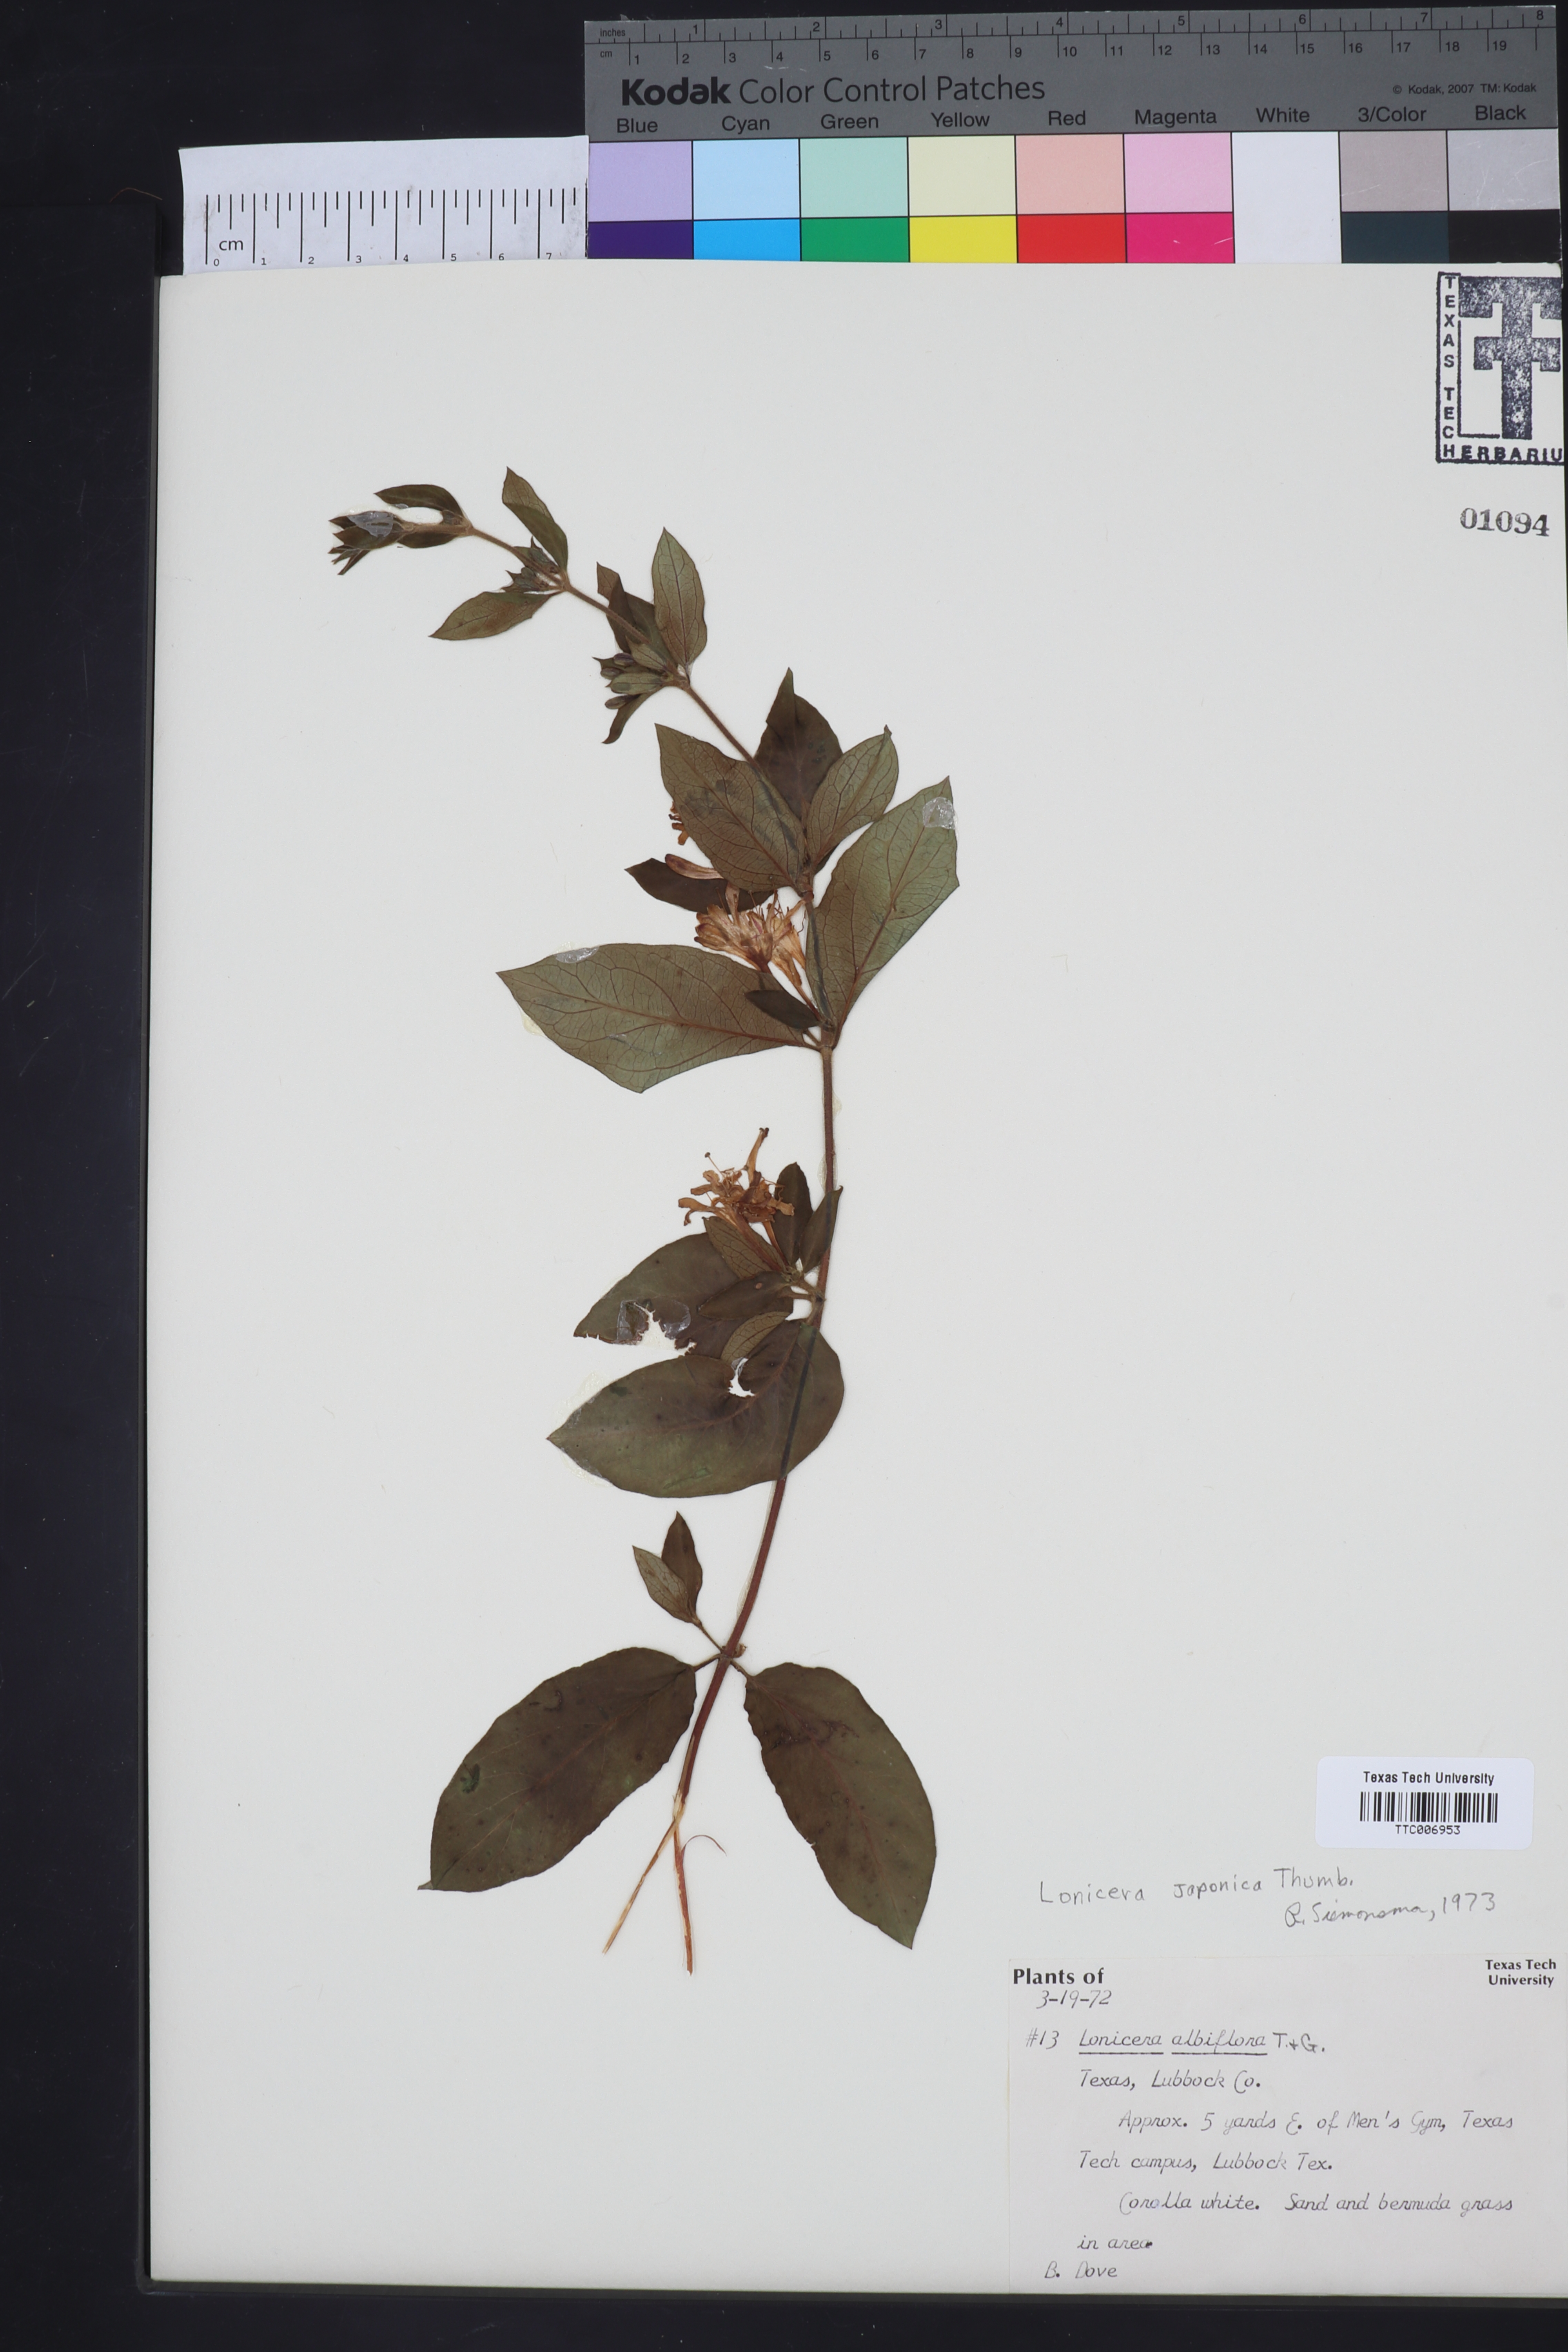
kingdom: Plantae
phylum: Tracheophyta
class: Magnoliopsida
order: Dipsacales
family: Caprifoliaceae
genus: Lonicera
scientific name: Lonicera japonica
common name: Japanese honeysuckle
